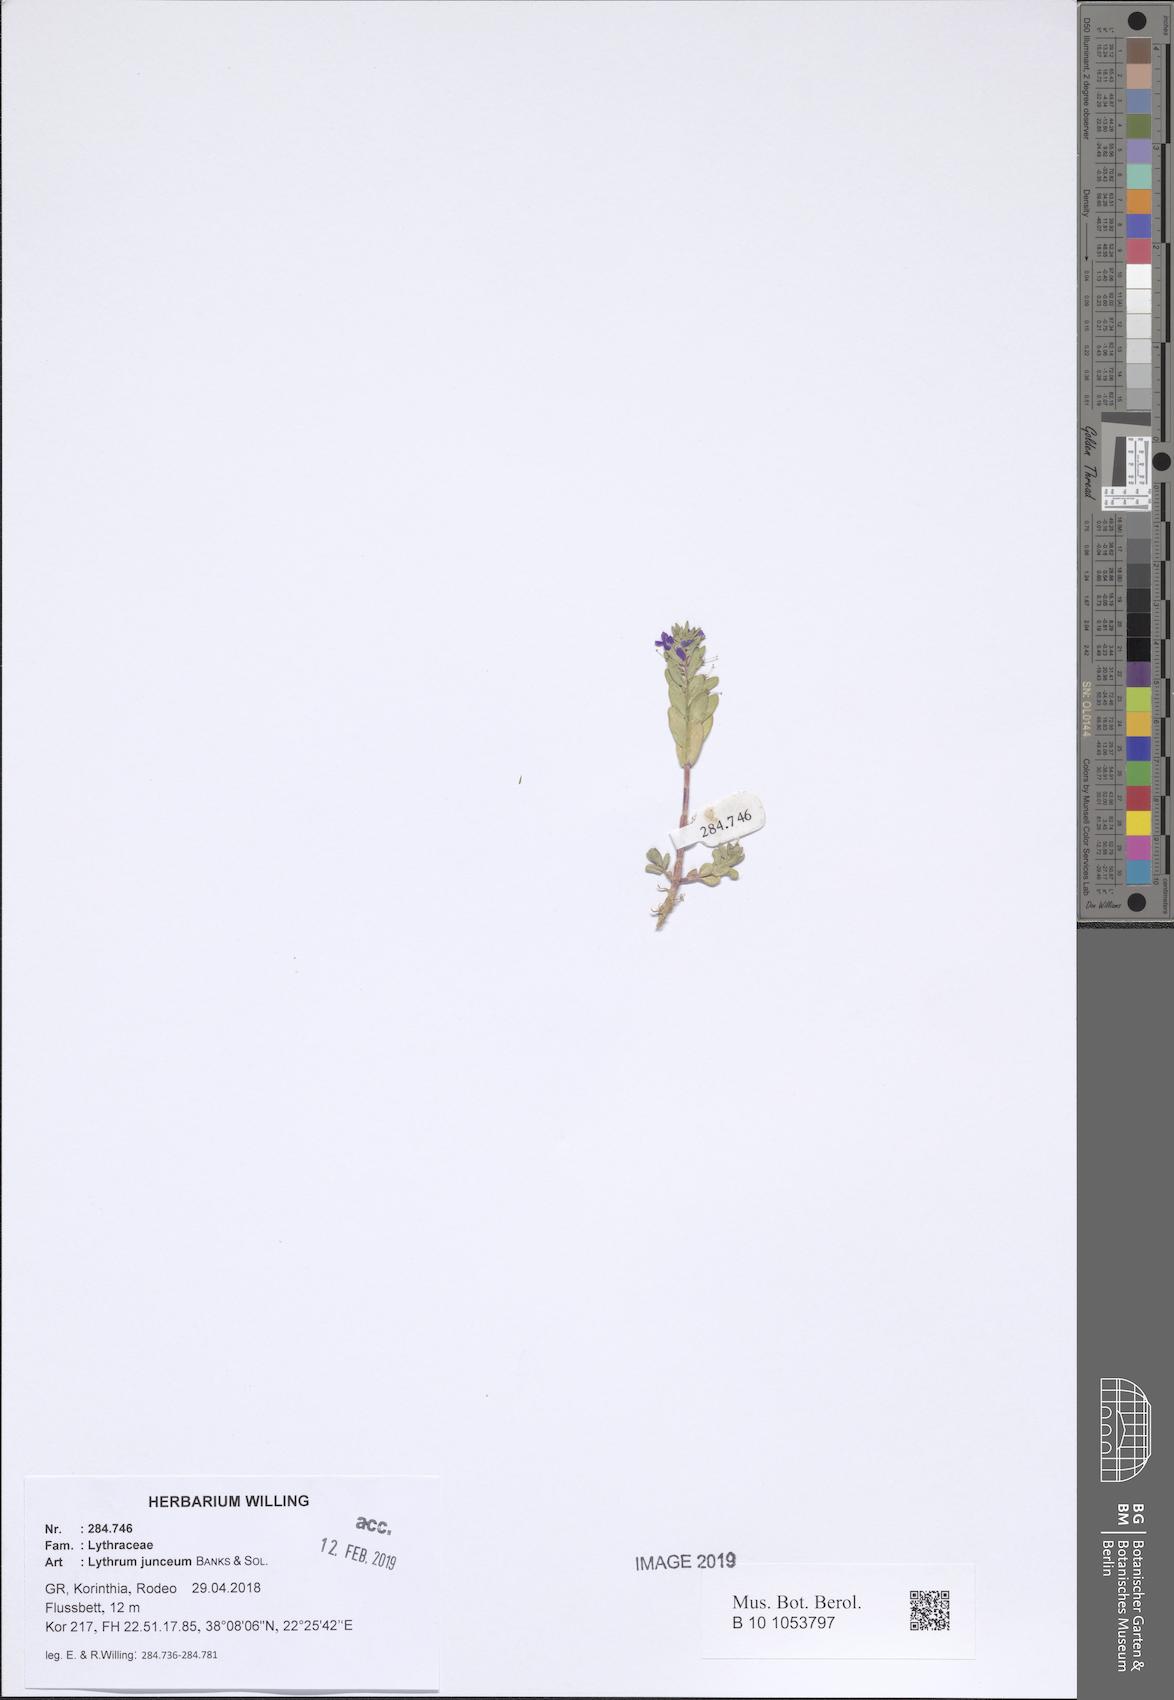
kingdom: Plantae
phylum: Tracheophyta
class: Magnoliopsida
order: Myrtales
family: Lythraceae
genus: Lythrum
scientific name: Lythrum junceum
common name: False grass-poly
